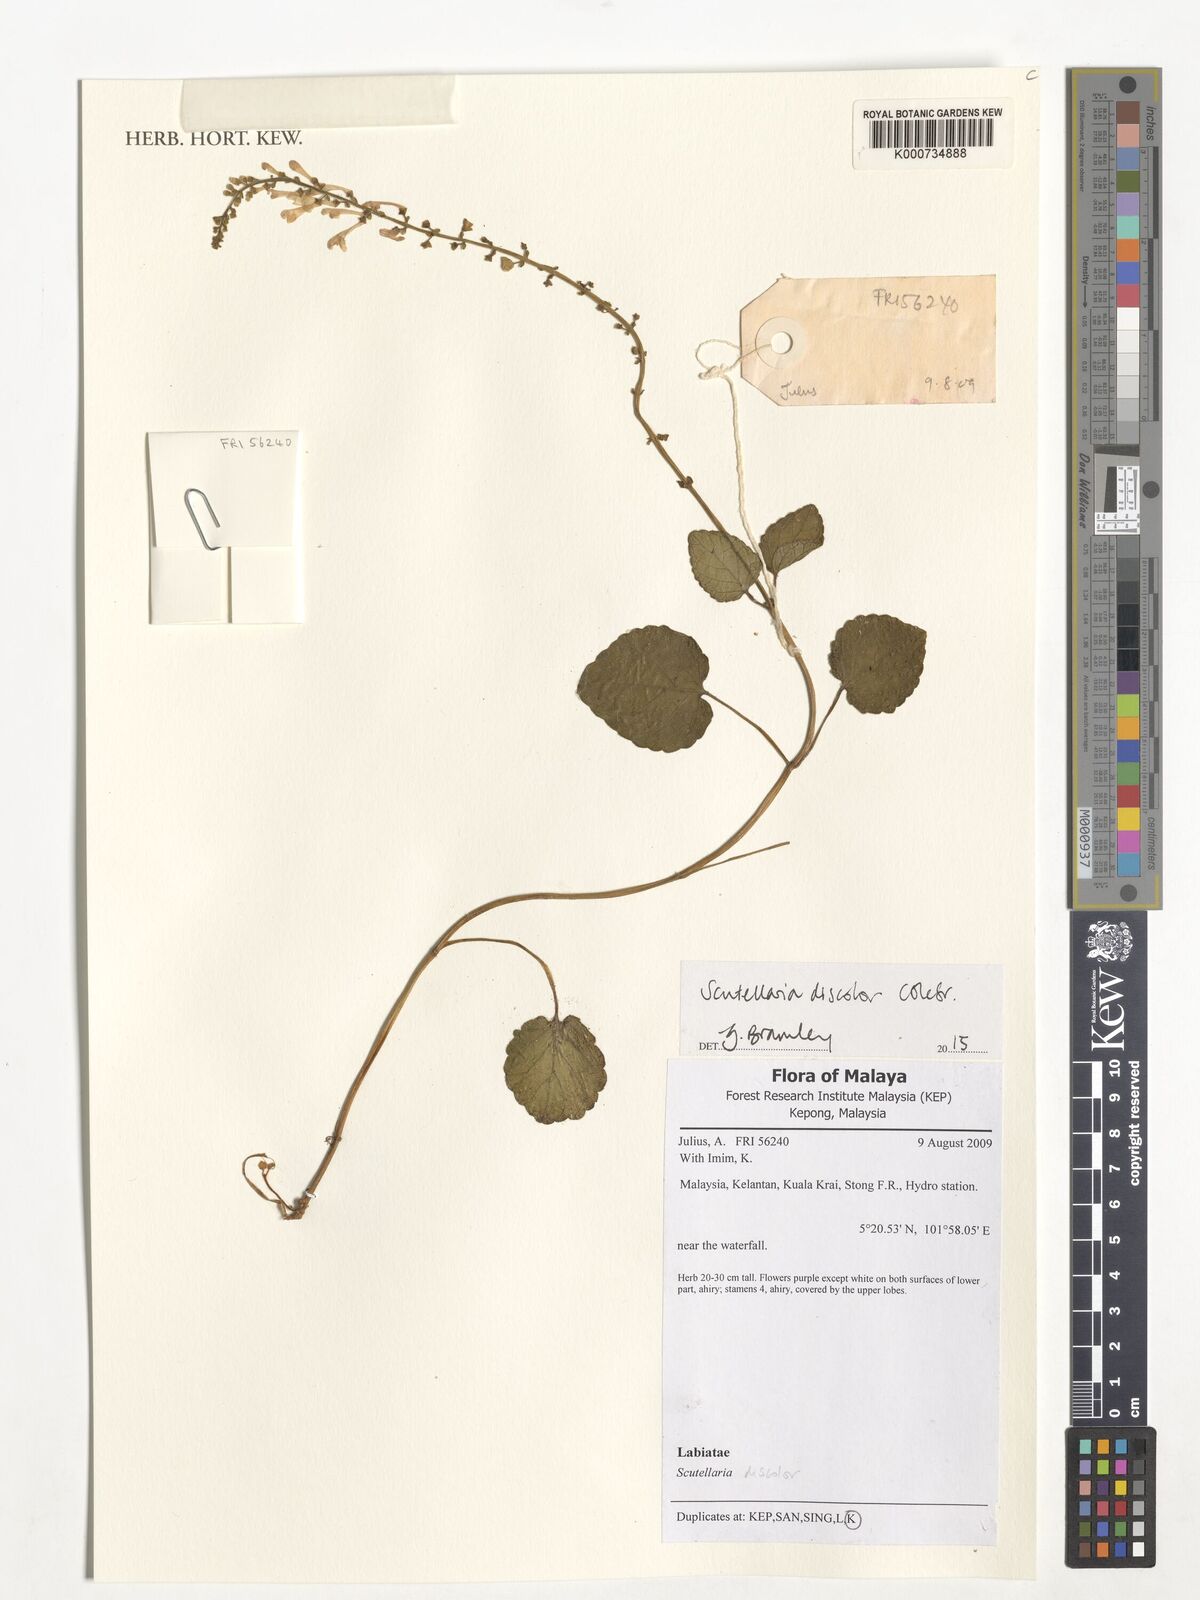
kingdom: Plantae
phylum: Tracheophyta
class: Magnoliopsida
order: Lamiales
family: Lamiaceae
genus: Scutellaria
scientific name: Scutellaria
